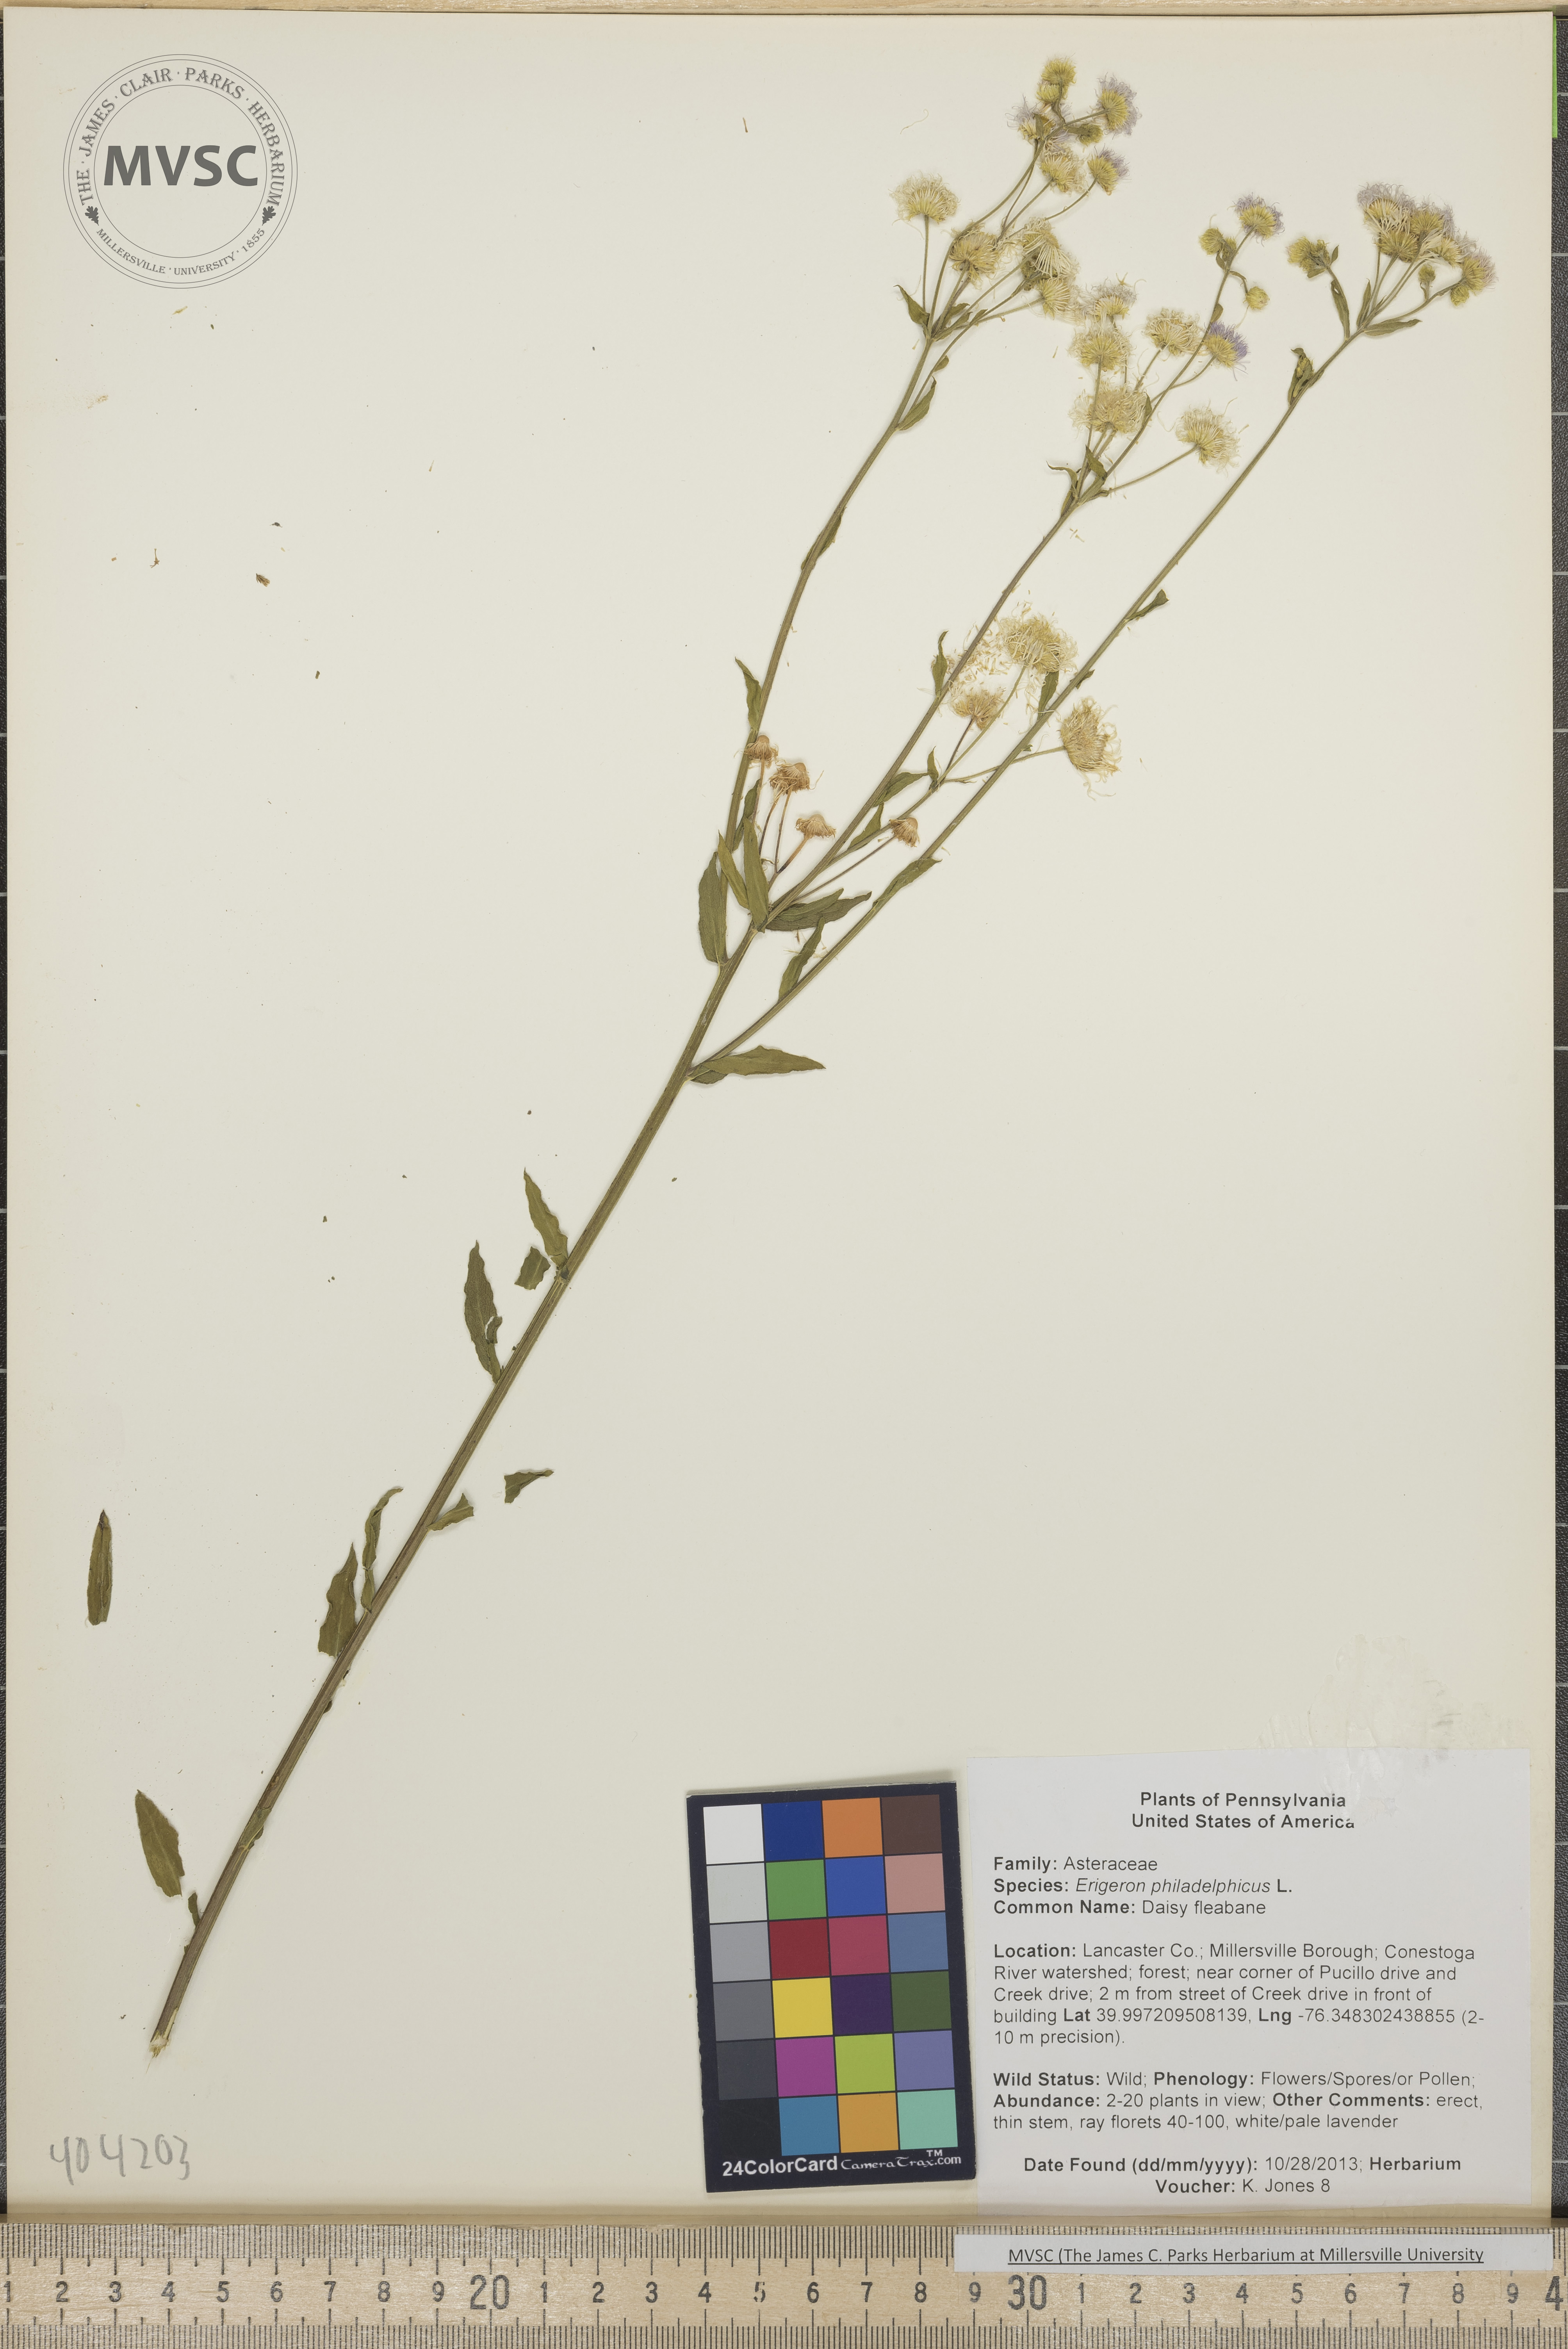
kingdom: Plantae
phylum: Tracheophyta
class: Magnoliopsida
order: Asterales
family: Asteraceae
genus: Erigeron
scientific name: Erigeron philadelphicus
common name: Daisy fleabane
